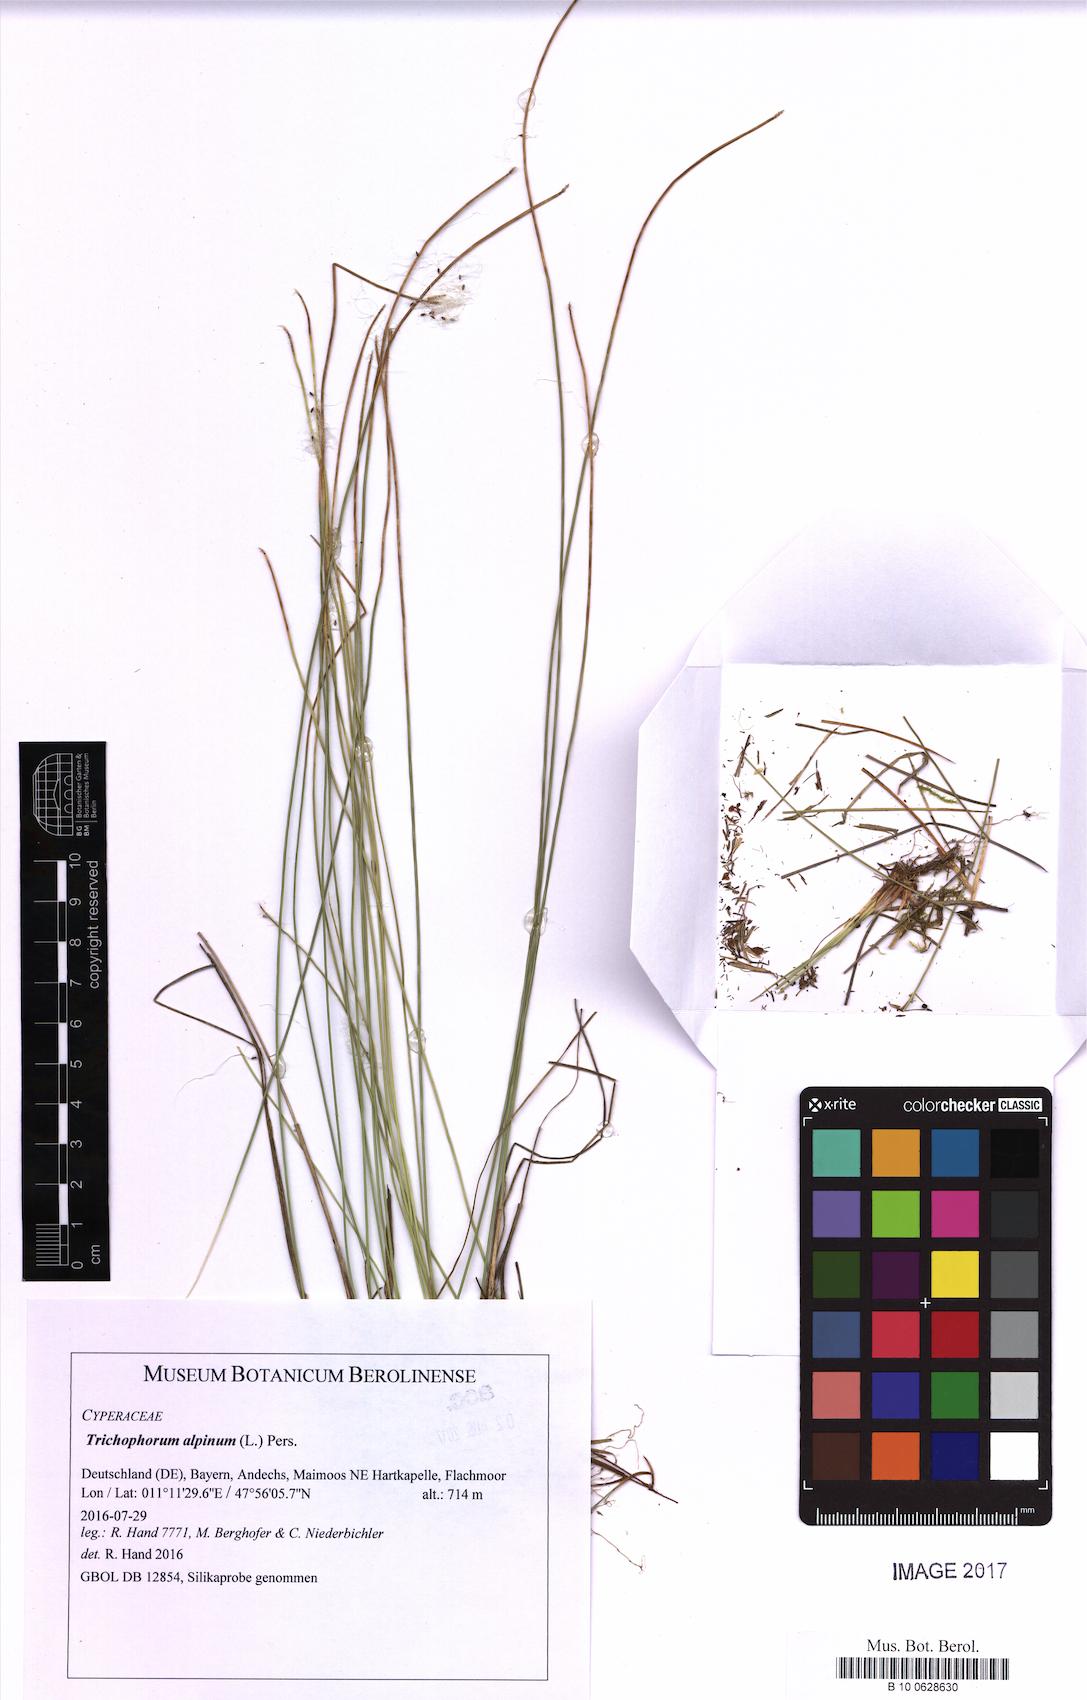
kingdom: Plantae
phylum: Tracheophyta
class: Liliopsida
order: Poales
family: Cyperaceae
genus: Trichophorum
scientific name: Trichophorum alpinum
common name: Alpine bulrush
